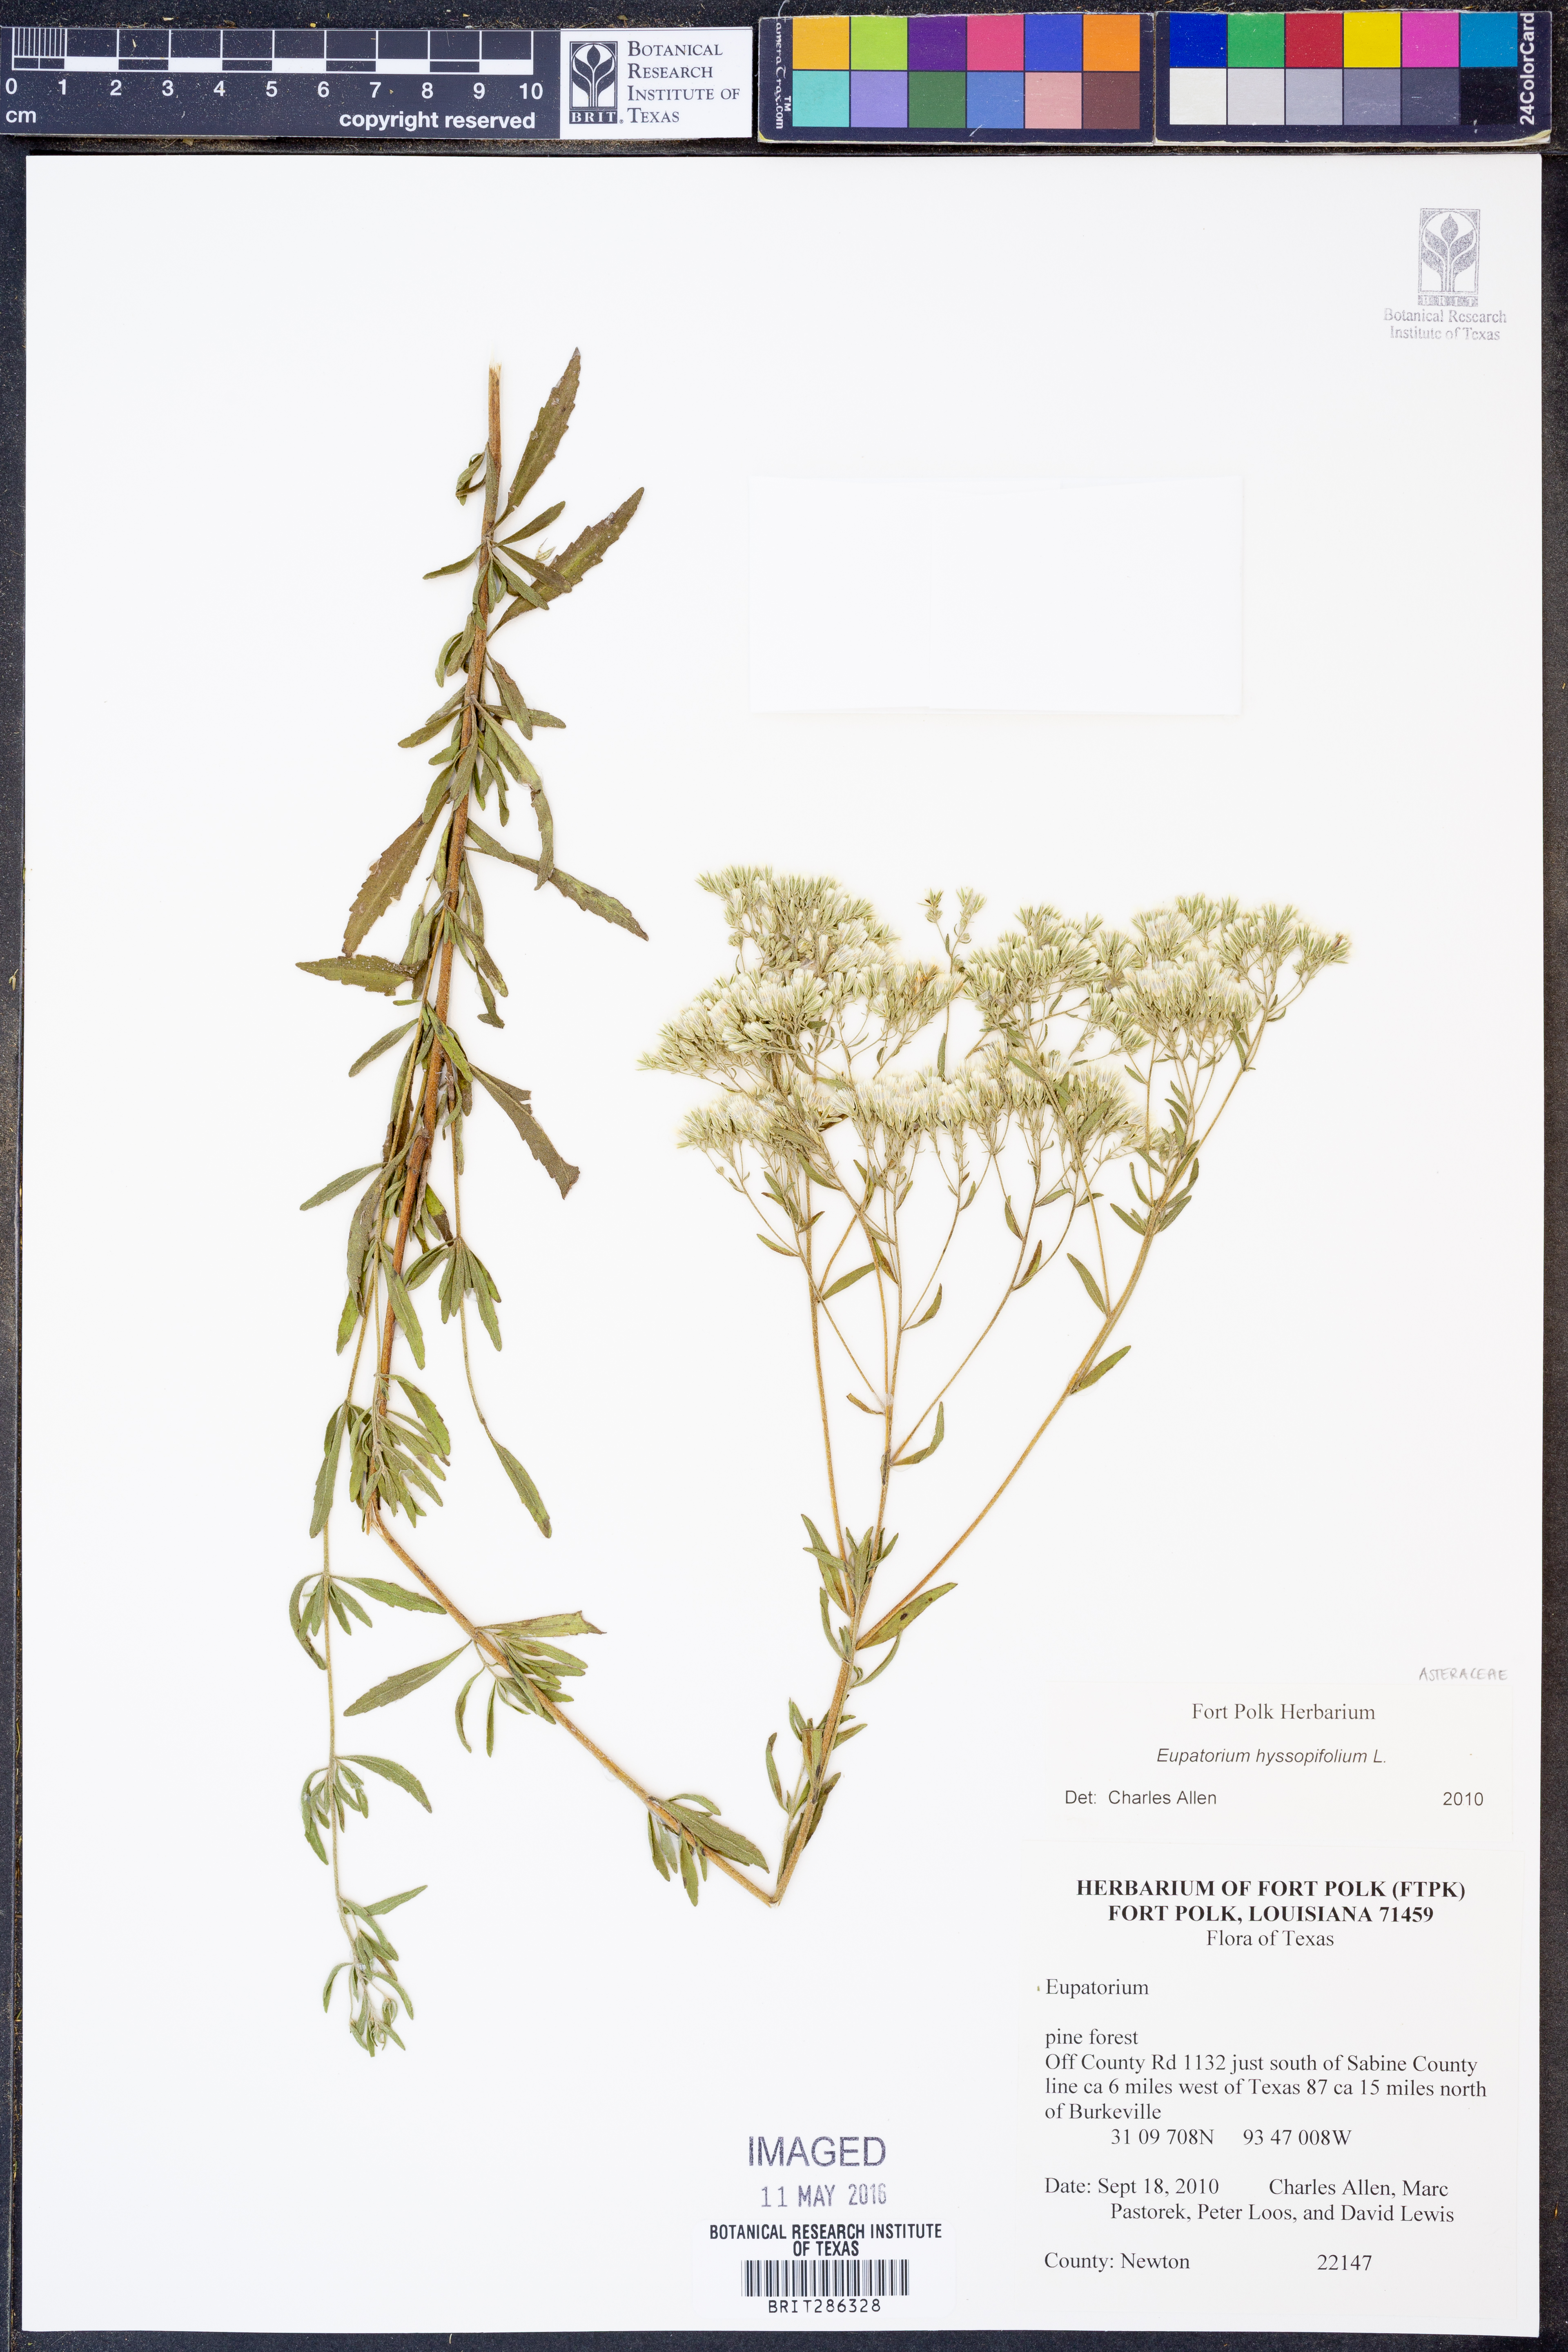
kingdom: Plantae
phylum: Tracheophyta
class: Magnoliopsida
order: Asterales
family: Asteraceae
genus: Eupatorium
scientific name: Eupatorium hyssopifolium
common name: Hyssop-leaf thoroughwort
